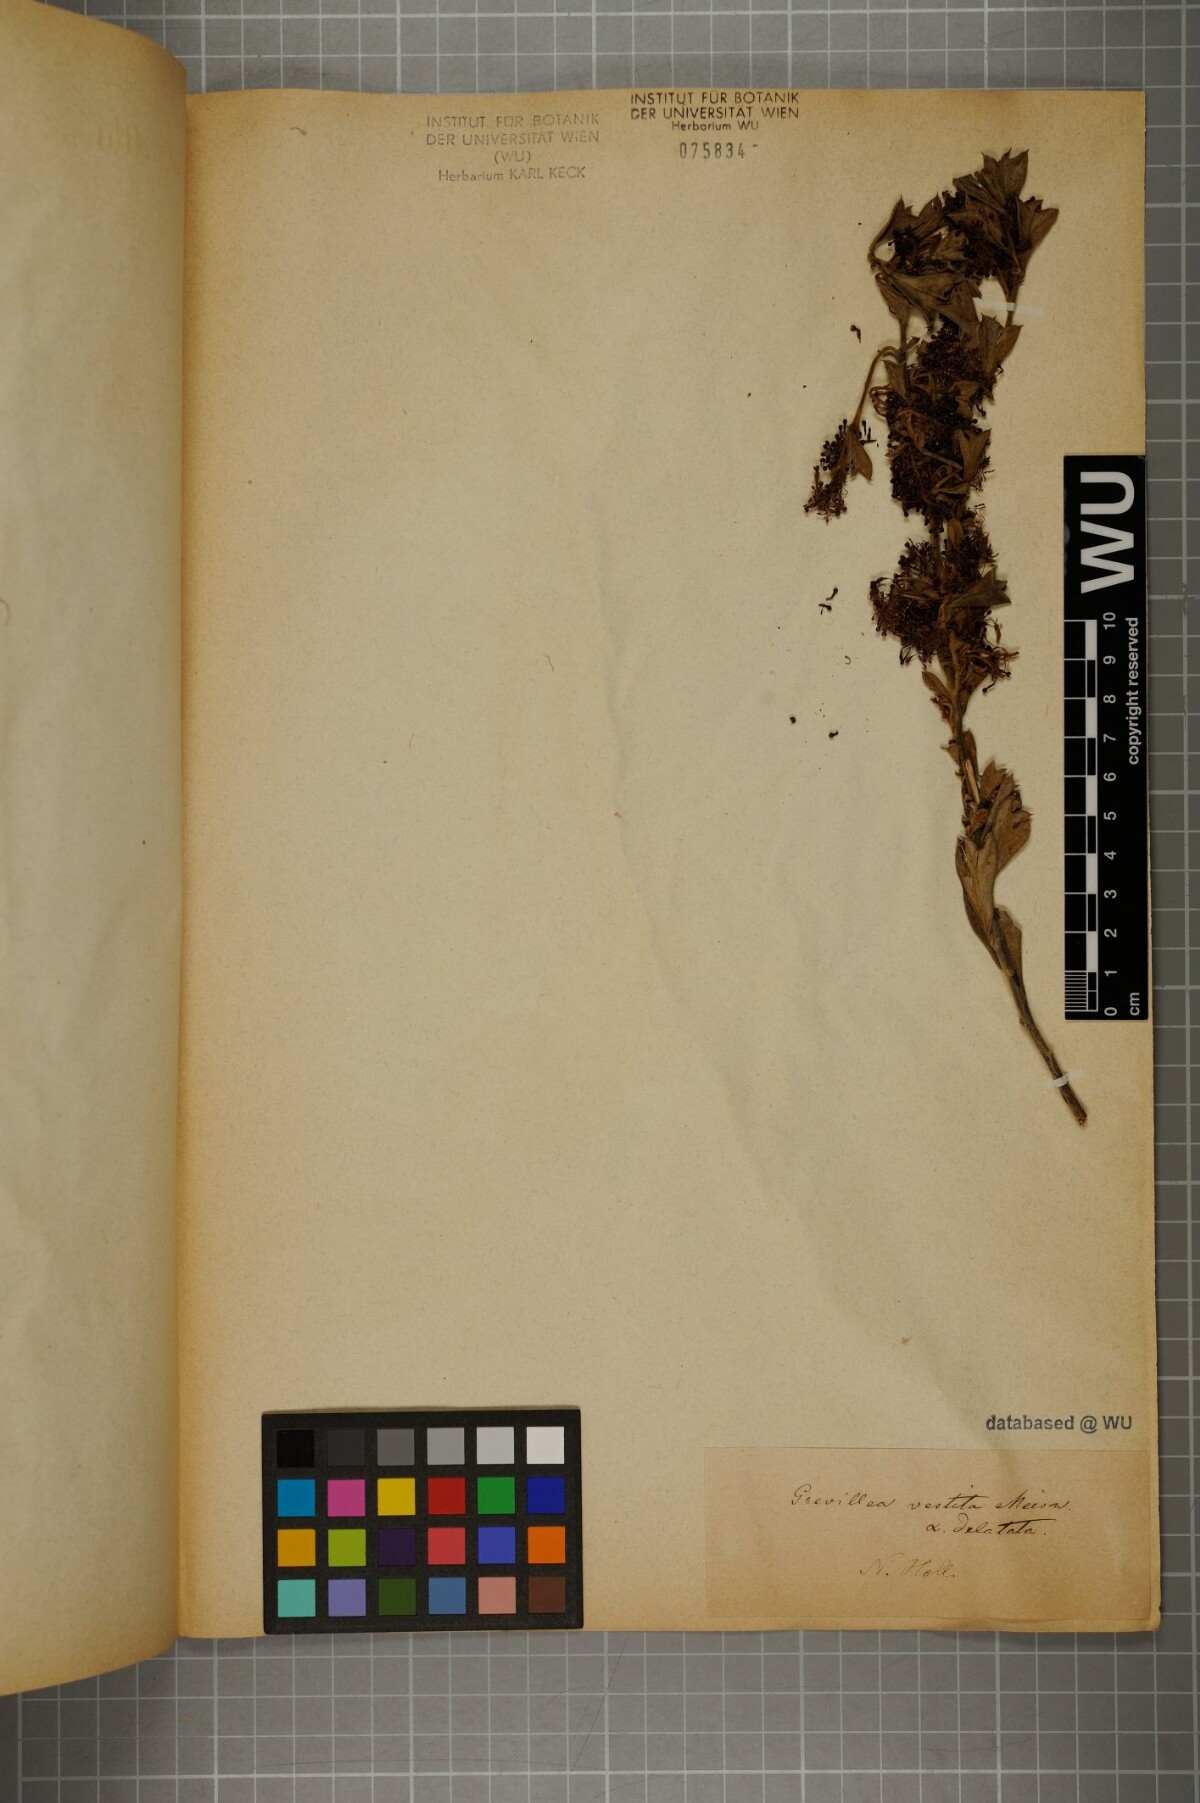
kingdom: Plantae
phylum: Tracheophyta
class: Magnoliopsida
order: Proteales
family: Proteaceae
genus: Grevillea
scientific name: Grevillea vestita
